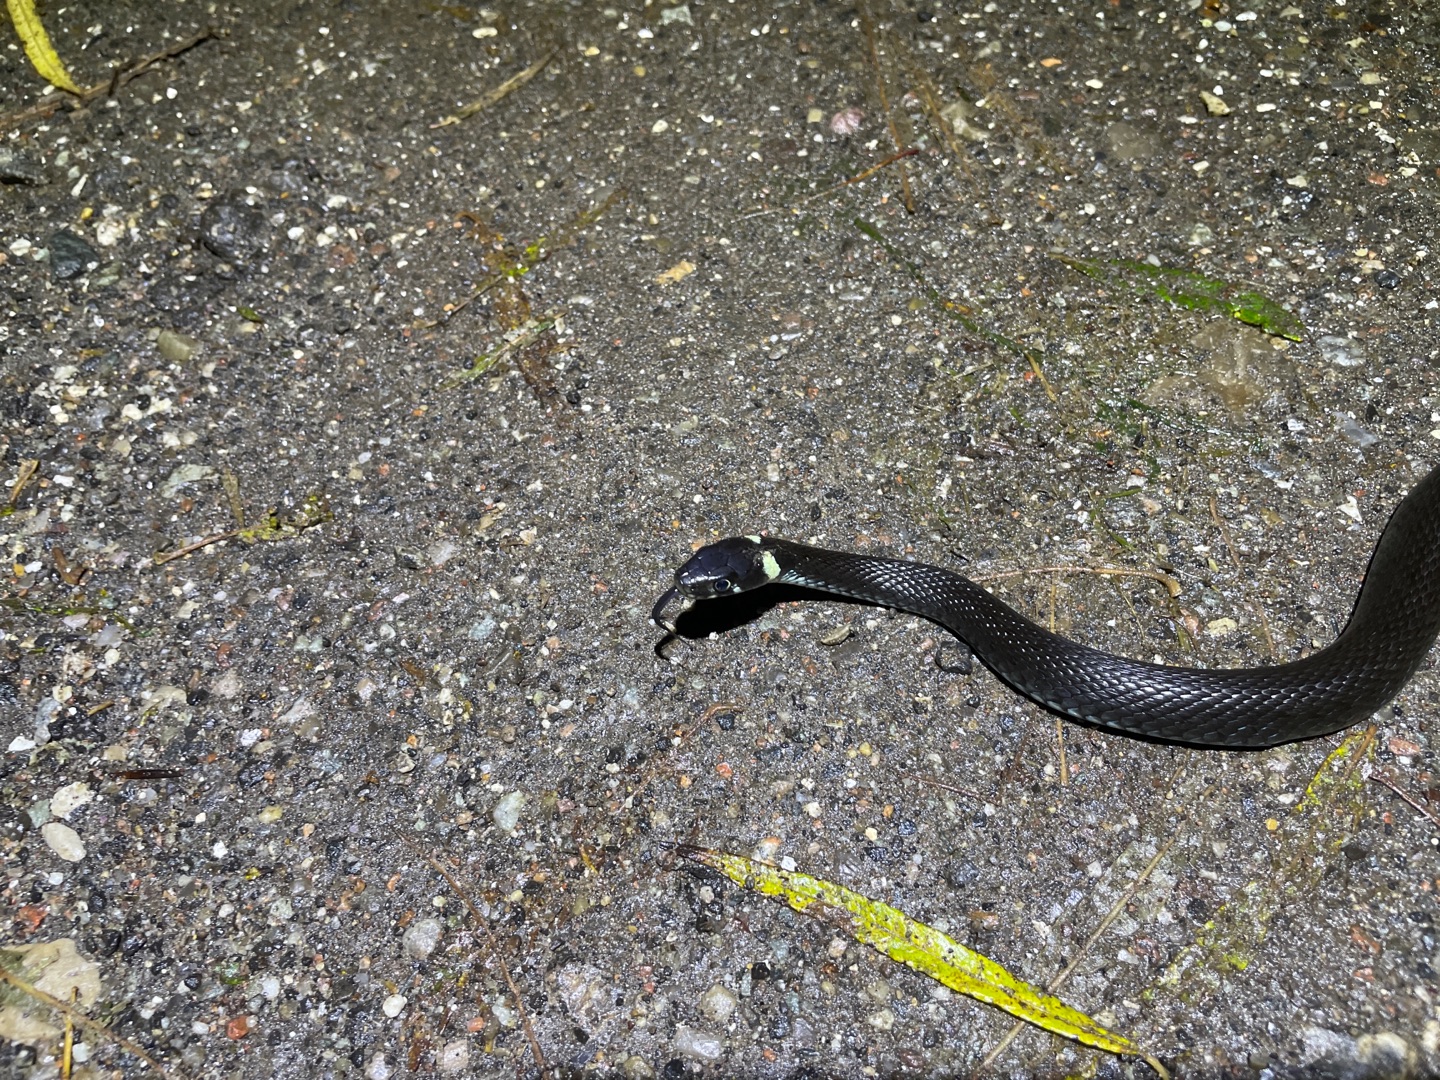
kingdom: Animalia
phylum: Chordata
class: Squamata
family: Colubridae
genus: Natrix
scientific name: Natrix natrix
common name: Snog
